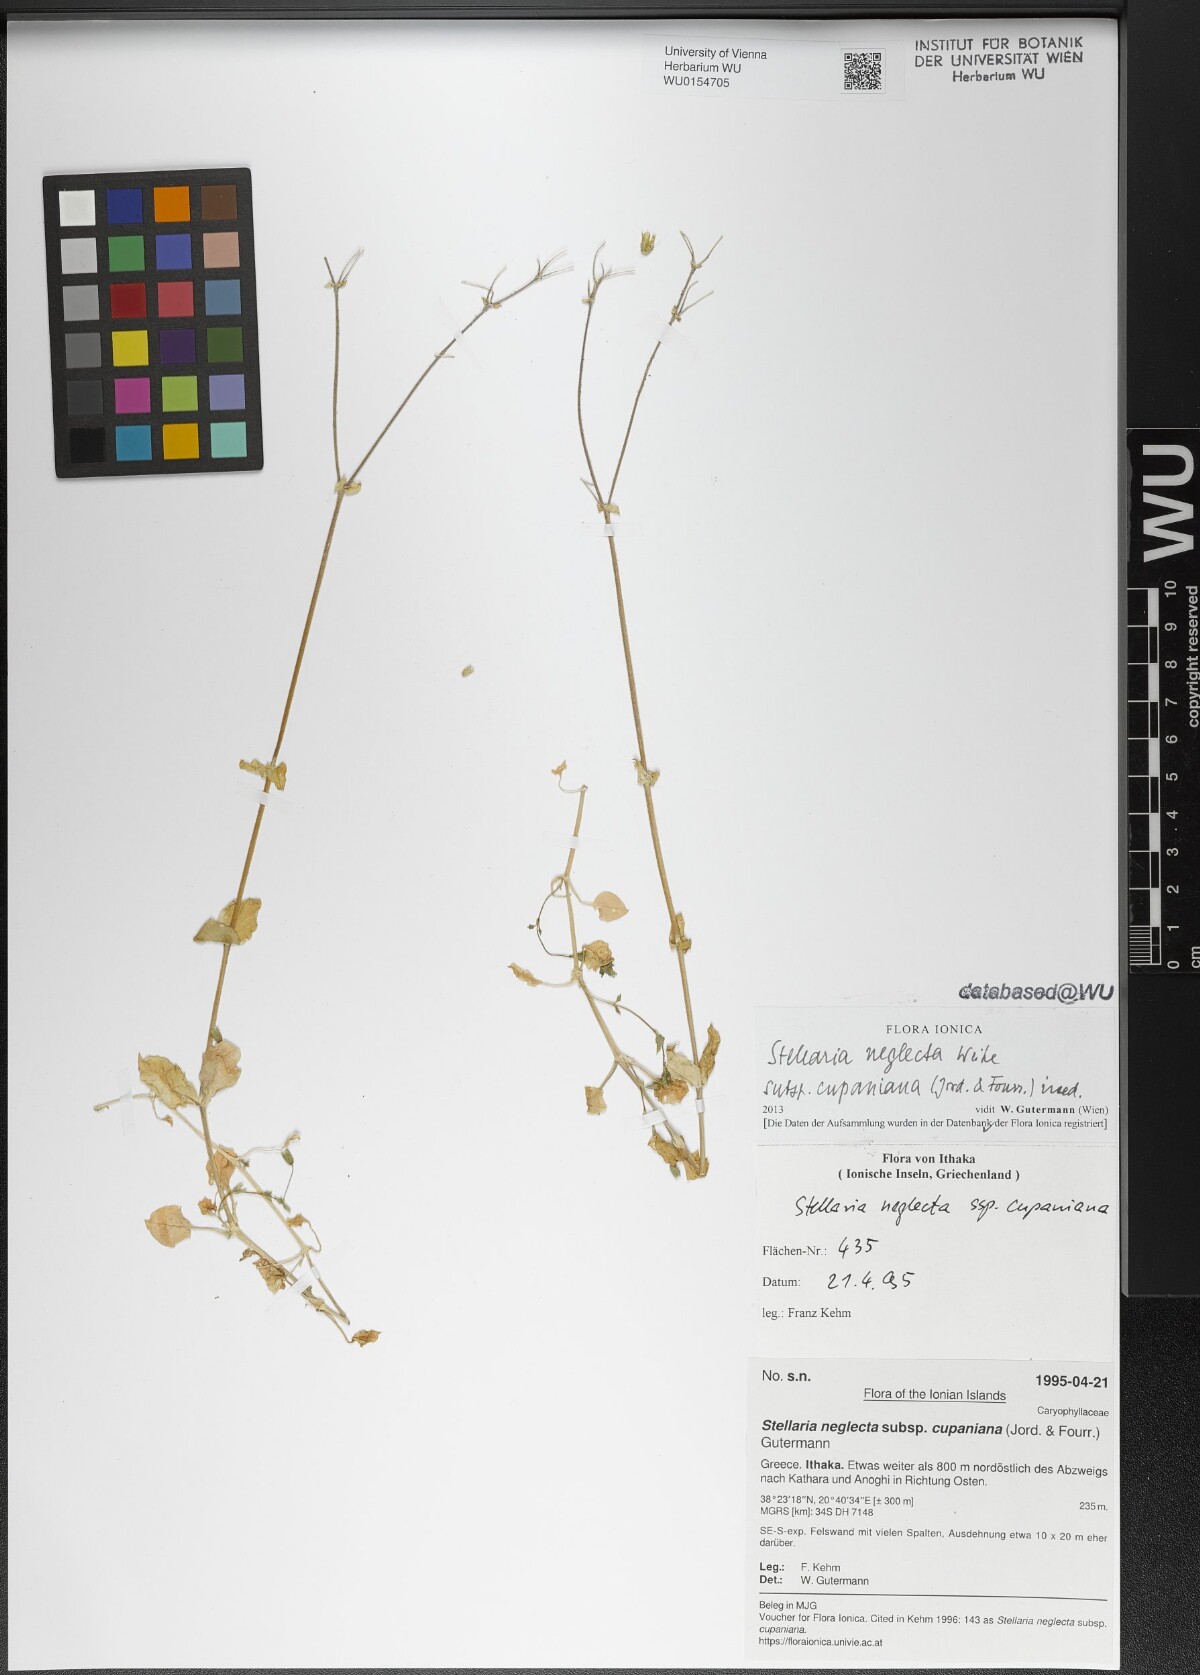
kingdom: Plantae
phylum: Tracheophyta
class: Magnoliopsida
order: Caryophyllales
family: Caryophyllaceae
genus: Stellaria
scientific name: Stellaria cupaniana
